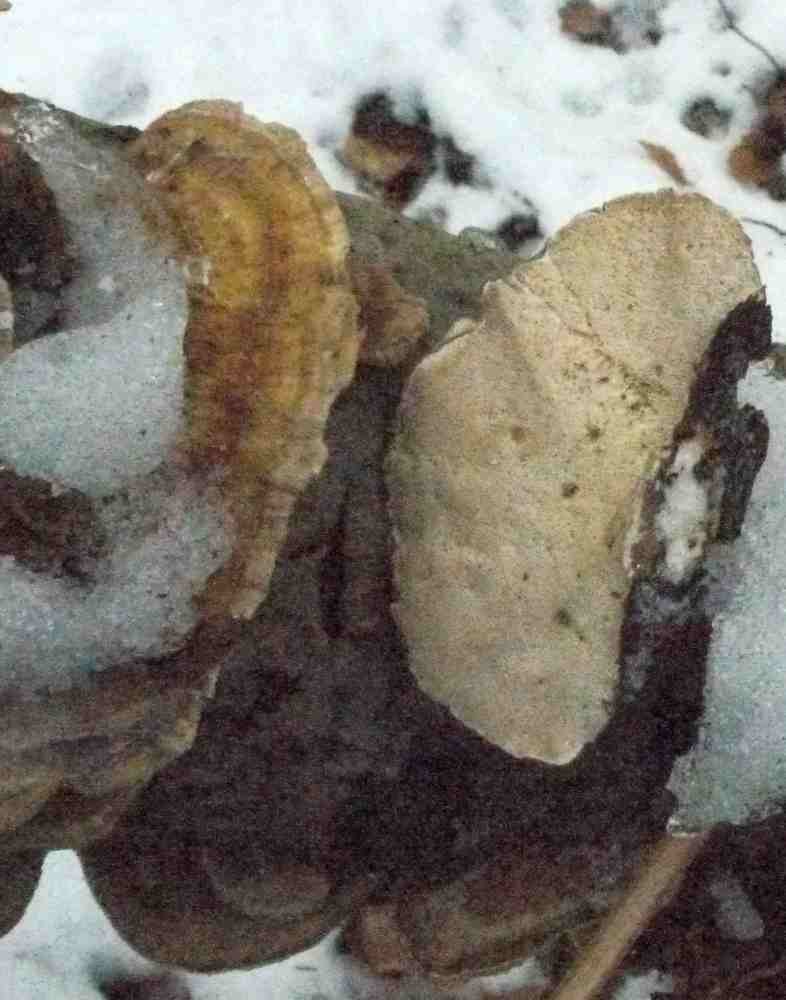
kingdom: Fungi
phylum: Basidiomycota
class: Agaricomycetes
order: Polyporales
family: Polyporaceae
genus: Trametes
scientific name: Trametes ochracea
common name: bæltet læderporesvamp
